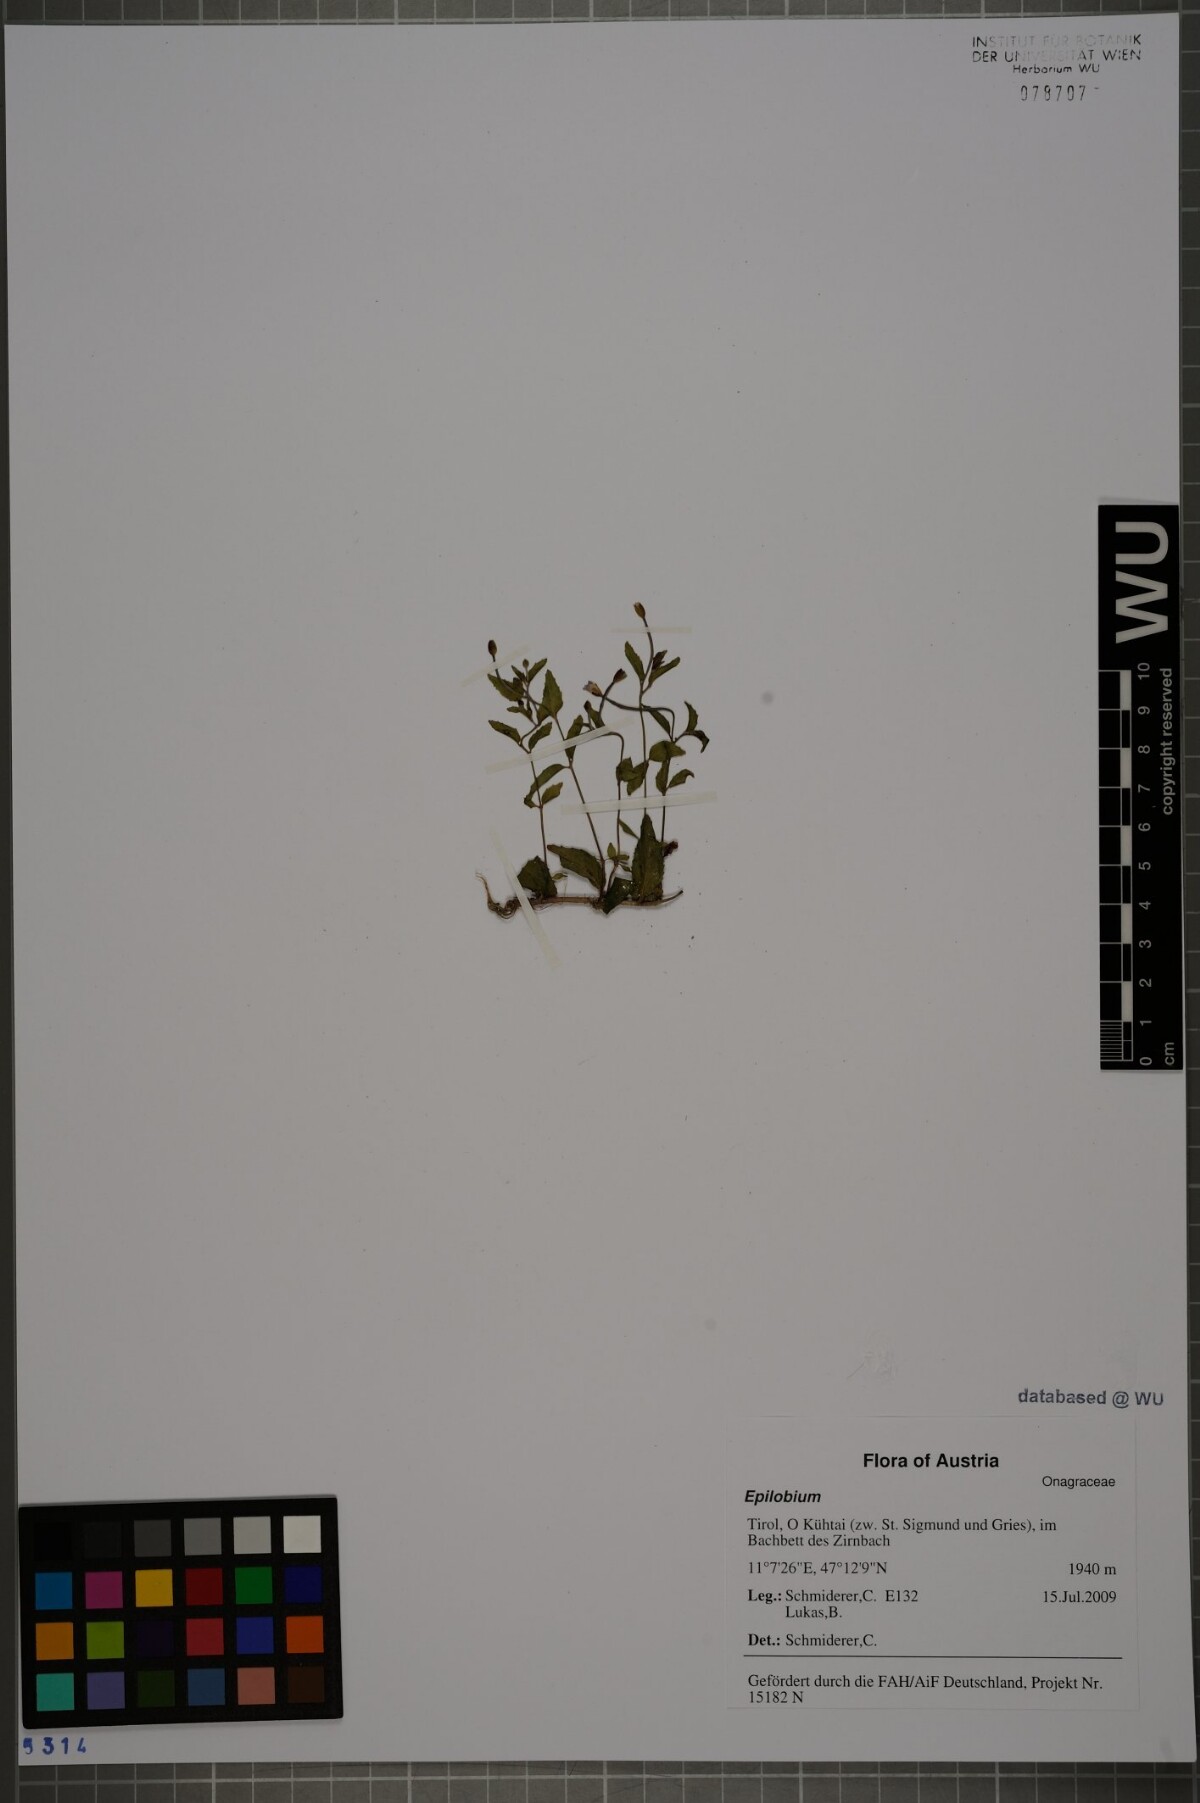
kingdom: Plantae
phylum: Tracheophyta
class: Magnoliopsida
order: Myrtales
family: Onagraceae
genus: Epilobium
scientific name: Epilobium collinum
